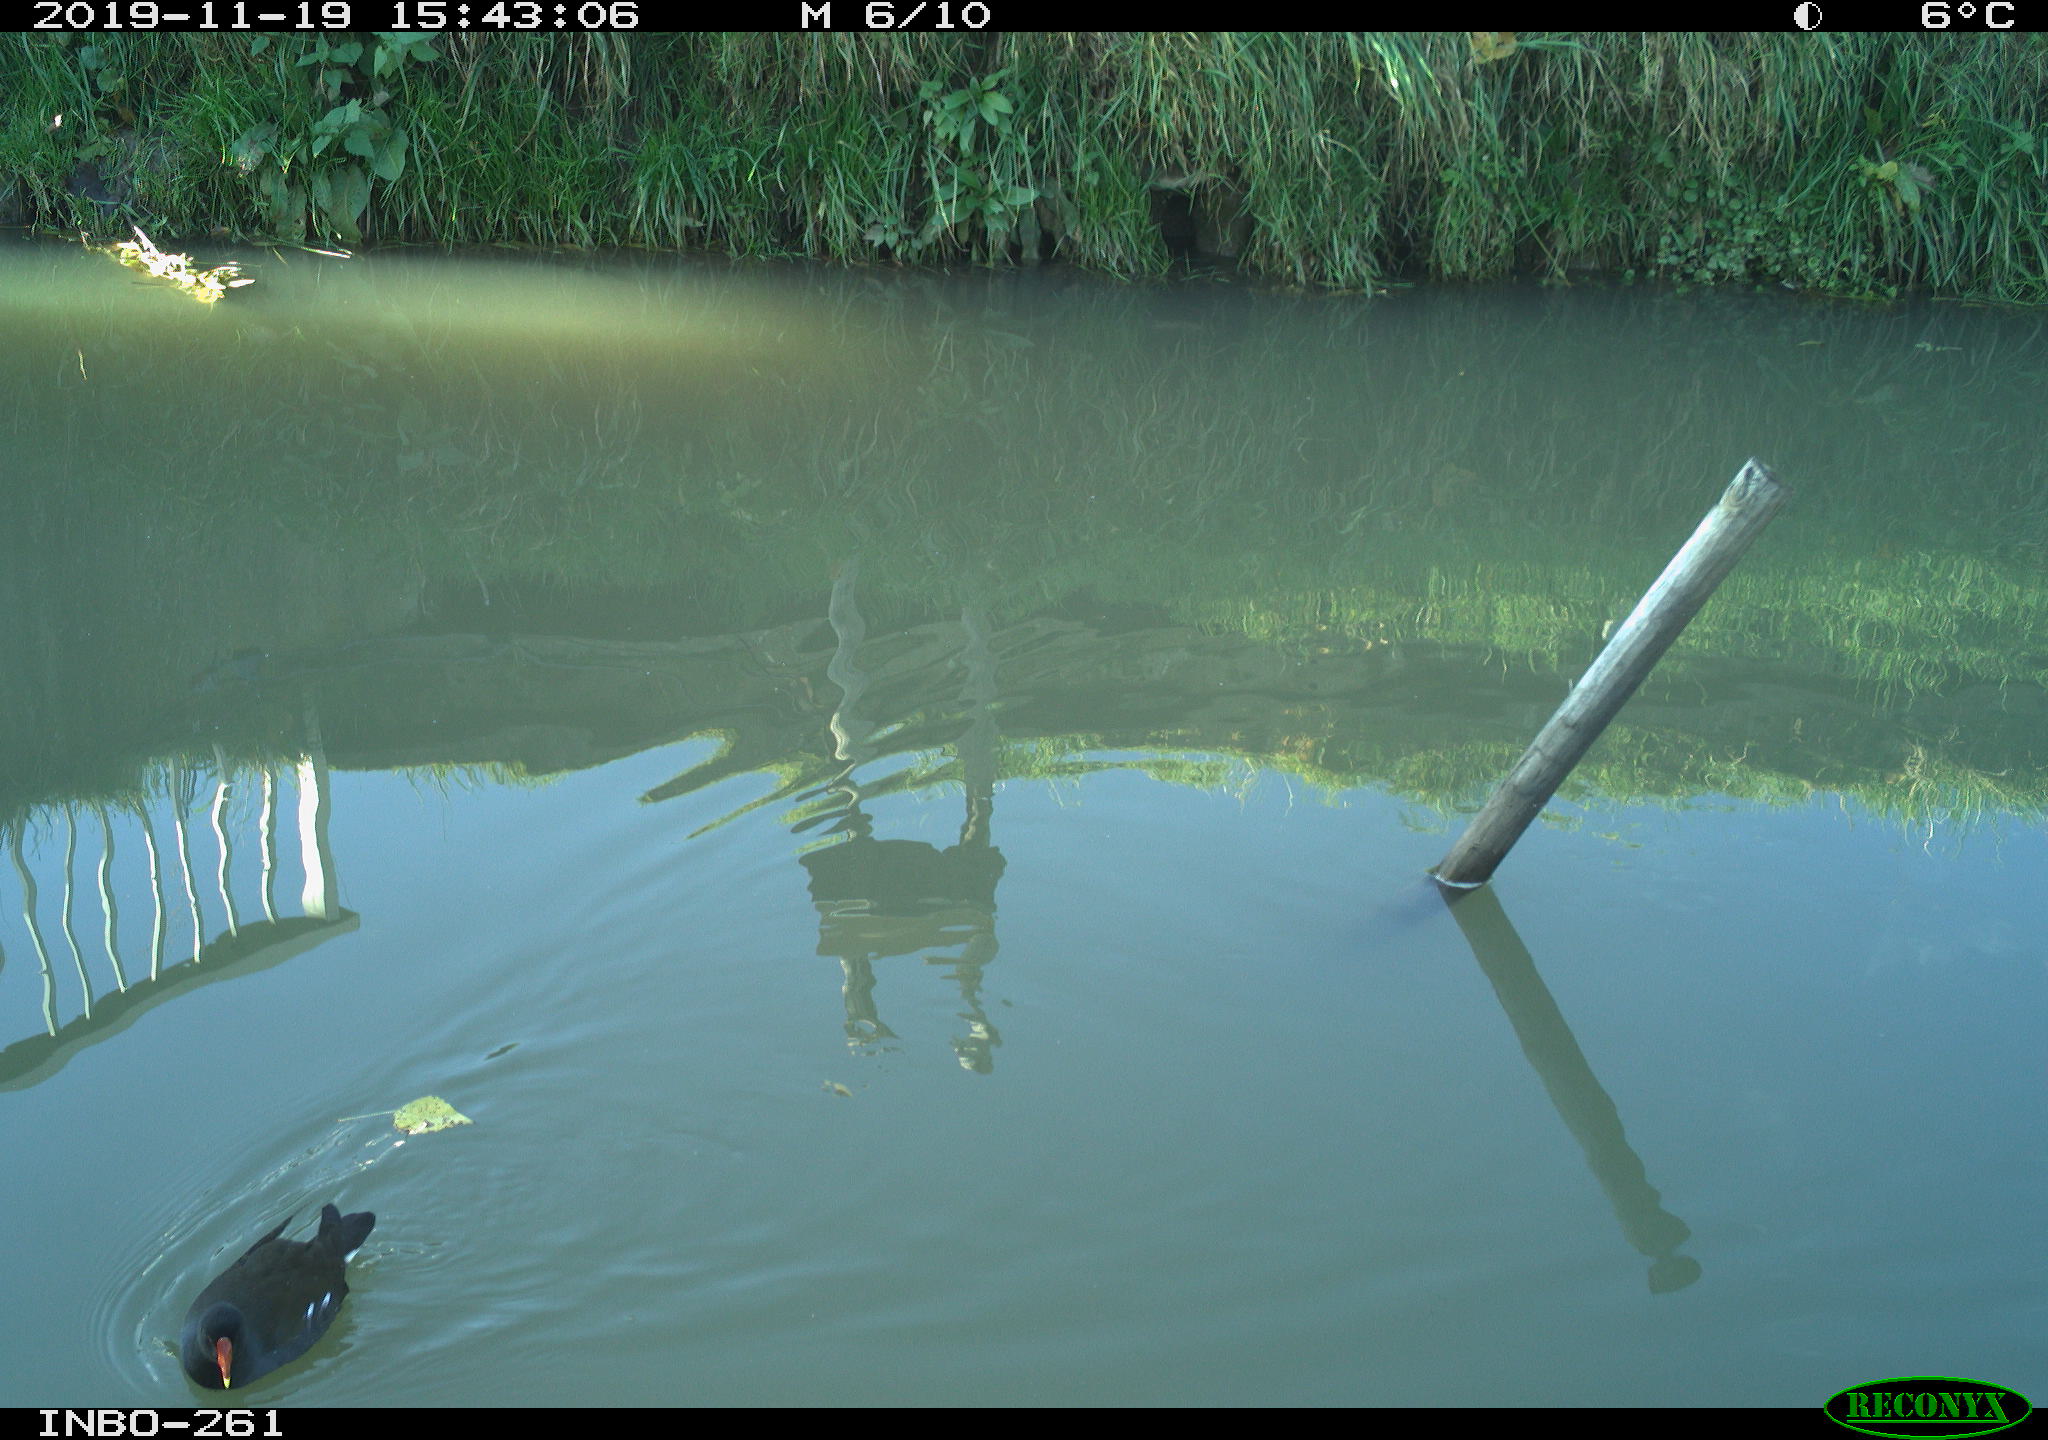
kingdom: Animalia
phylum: Chordata
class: Aves
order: Gruiformes
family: Rallidae
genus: Gallinula
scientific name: Gallinula chloropus
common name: Common moorhen
